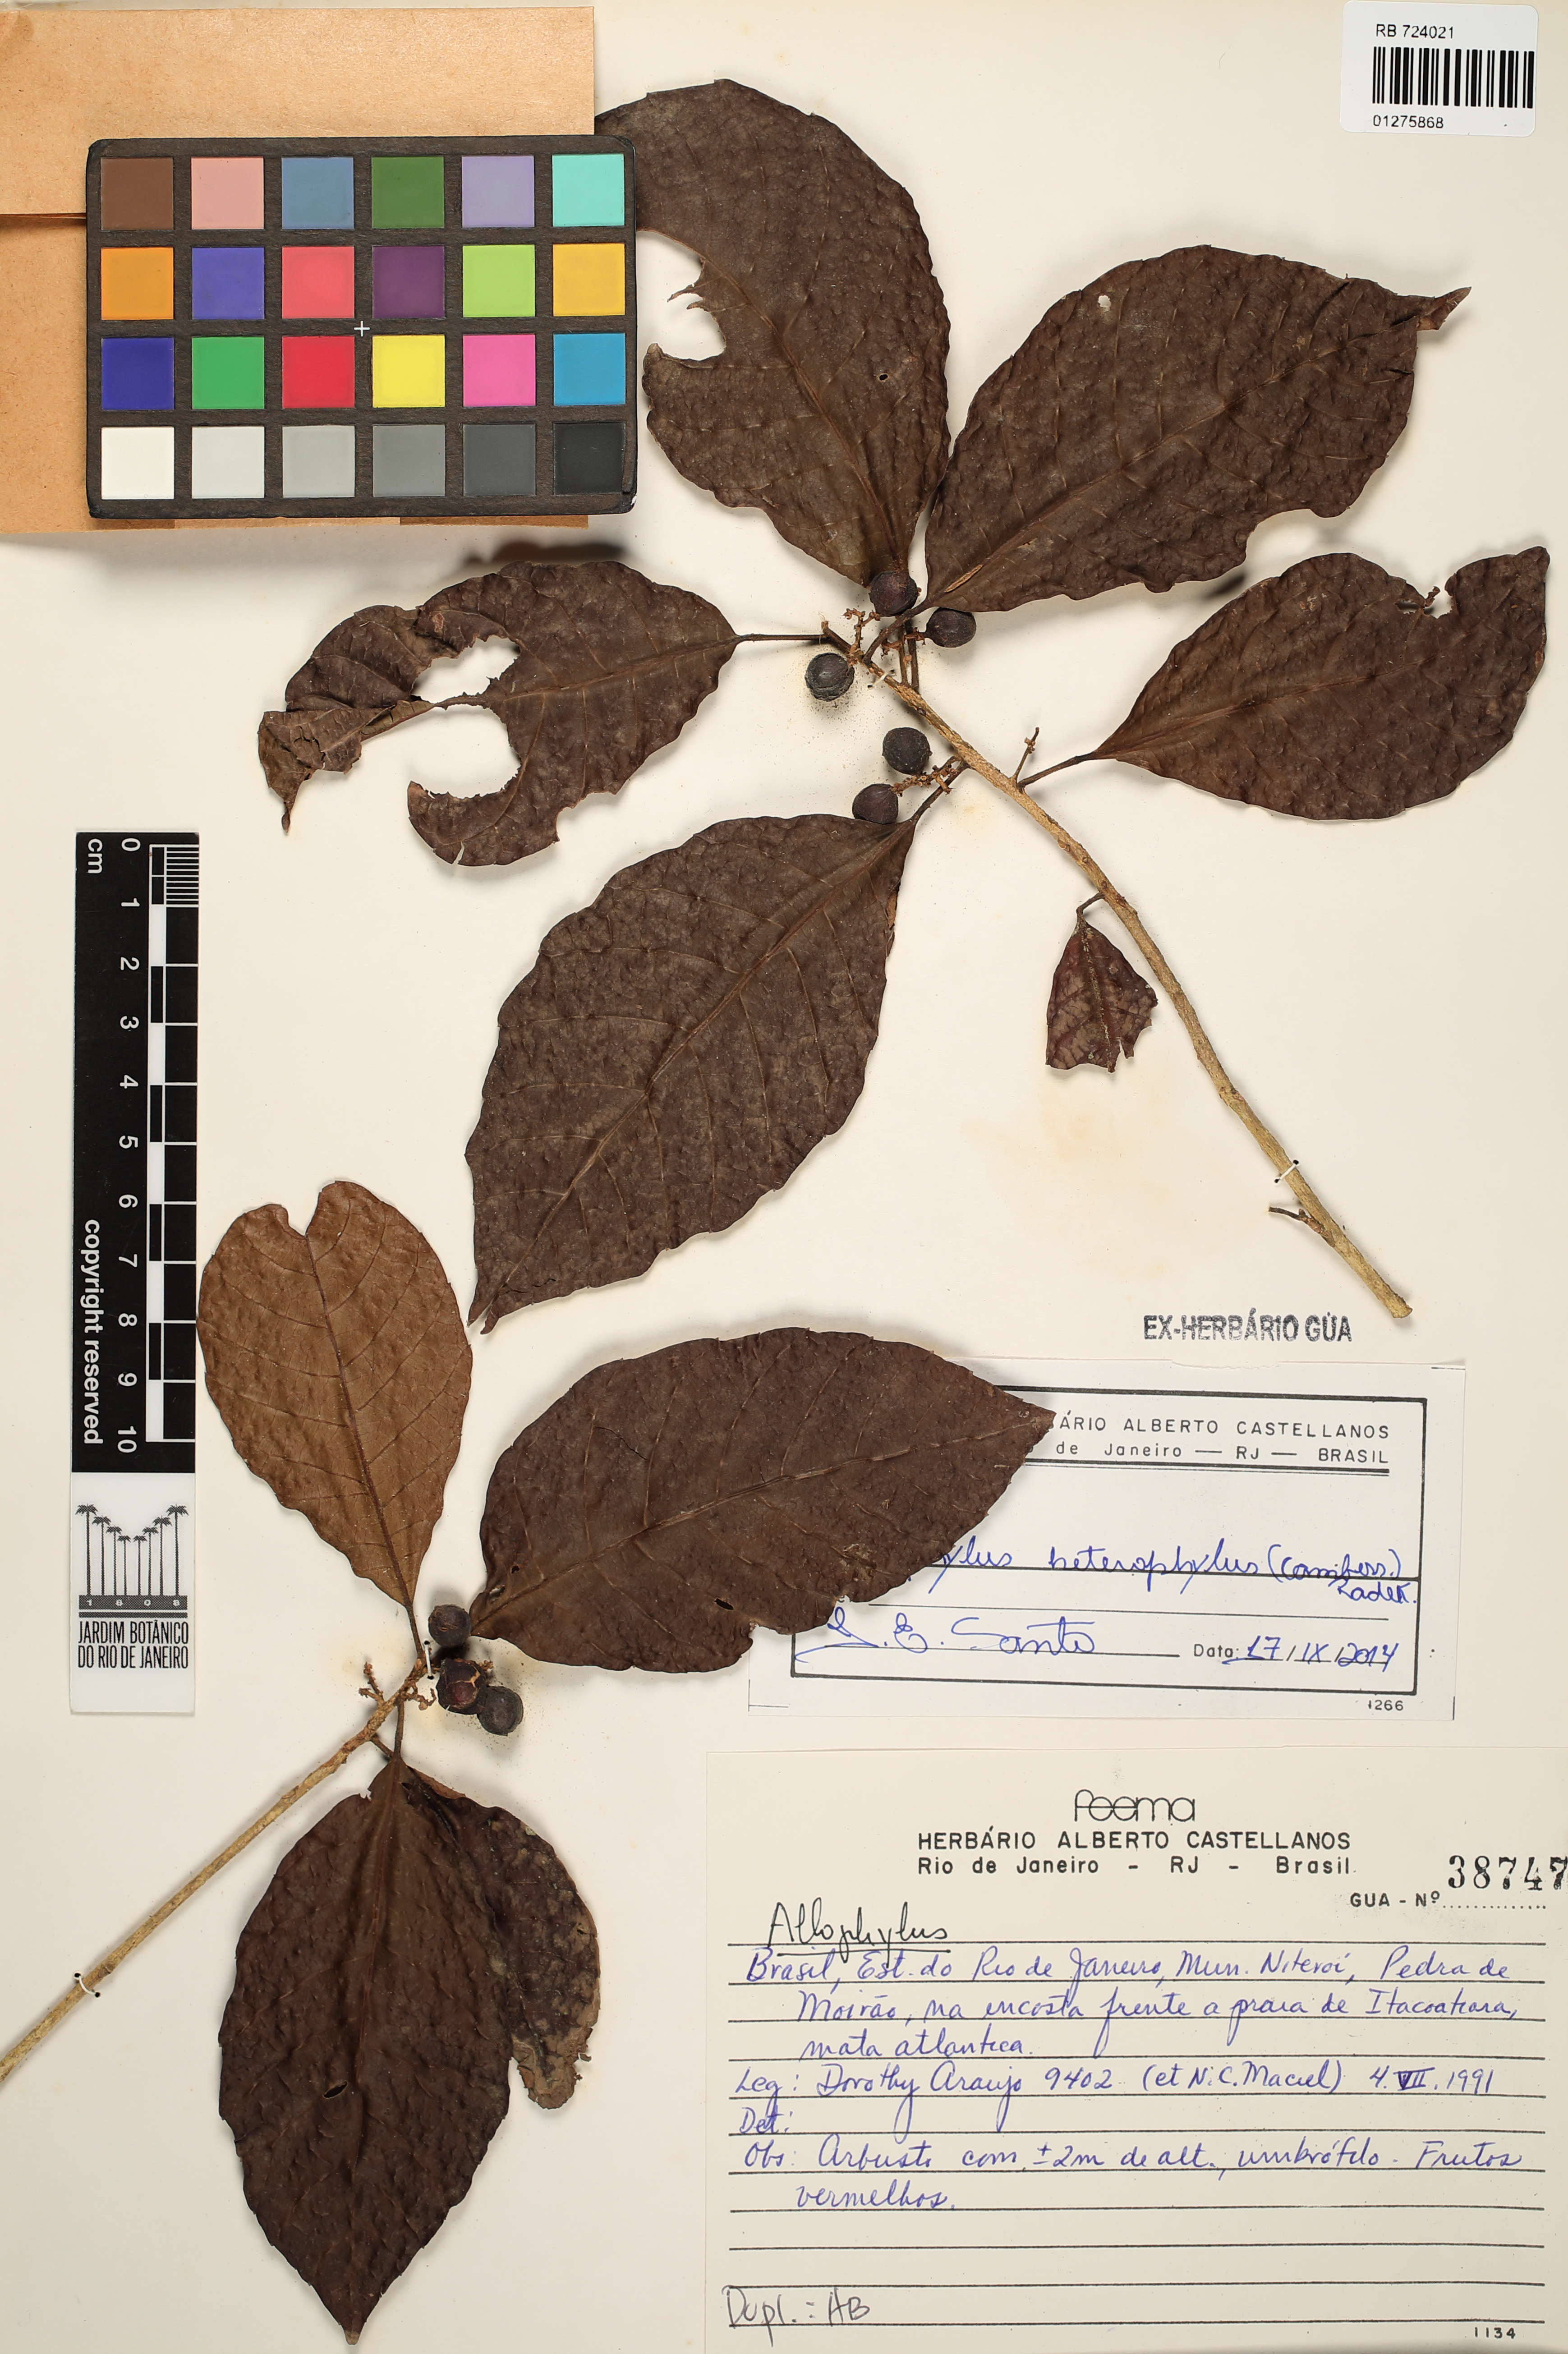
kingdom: Plantae
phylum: Tracheophyta
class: Magnoliopsida
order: Sapindales
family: Sapindaceae
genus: Allophylus
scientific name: Allophylus heterophyllus
